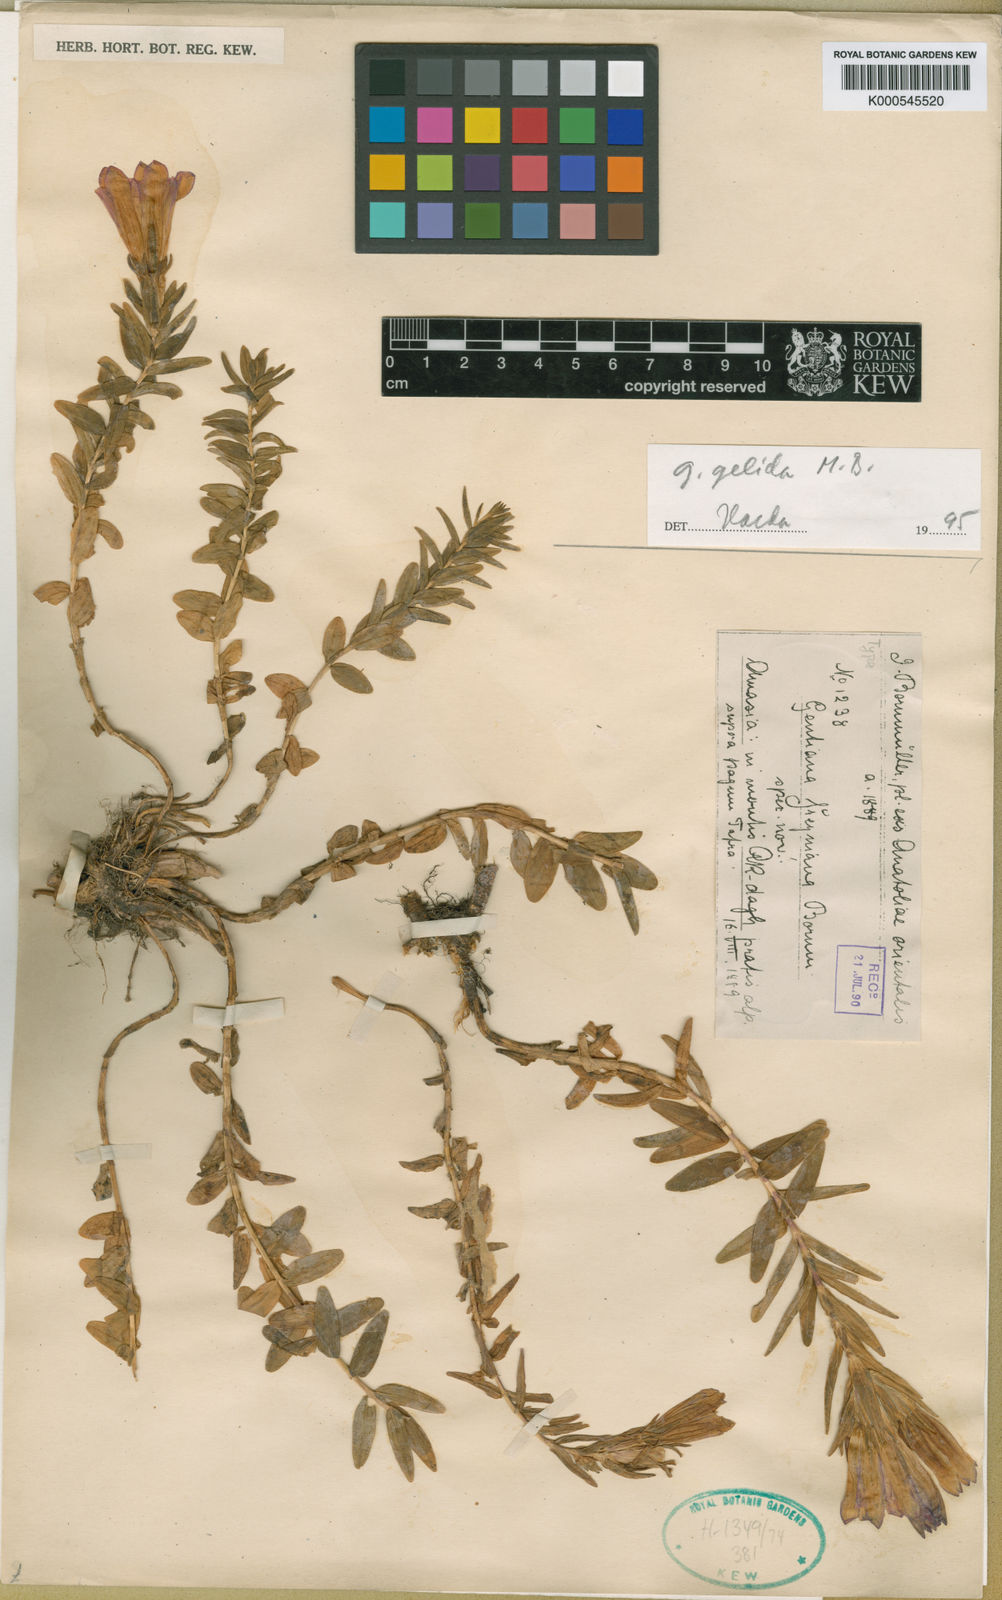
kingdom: Plantae
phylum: Tracheophyta
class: Magnoliopsida
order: Gentianales
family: Gentianaceae
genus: Gentiana
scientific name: Gentiana septemfida
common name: Crested gentian
